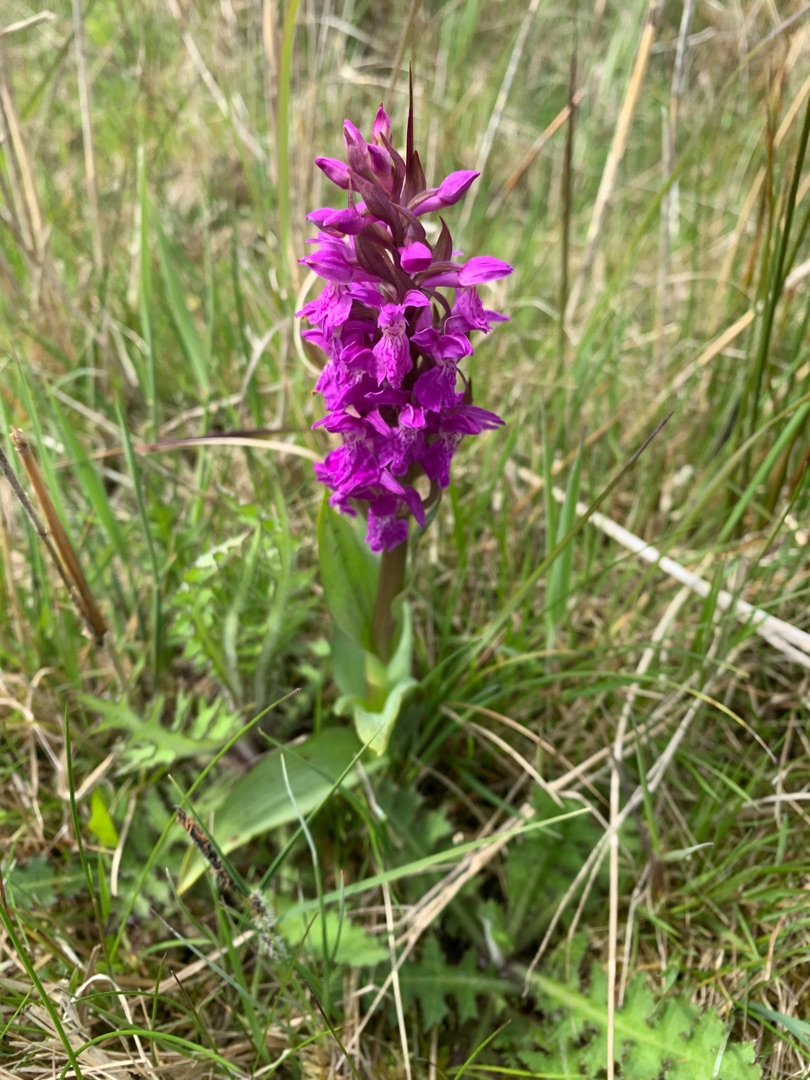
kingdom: Plantae
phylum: Tracheophyta
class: Liliopsida
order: Asparagales
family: Orchidaceae
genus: Dactylorhiza
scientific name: Dactylorhiza majalis
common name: Maj-gøgeurt
